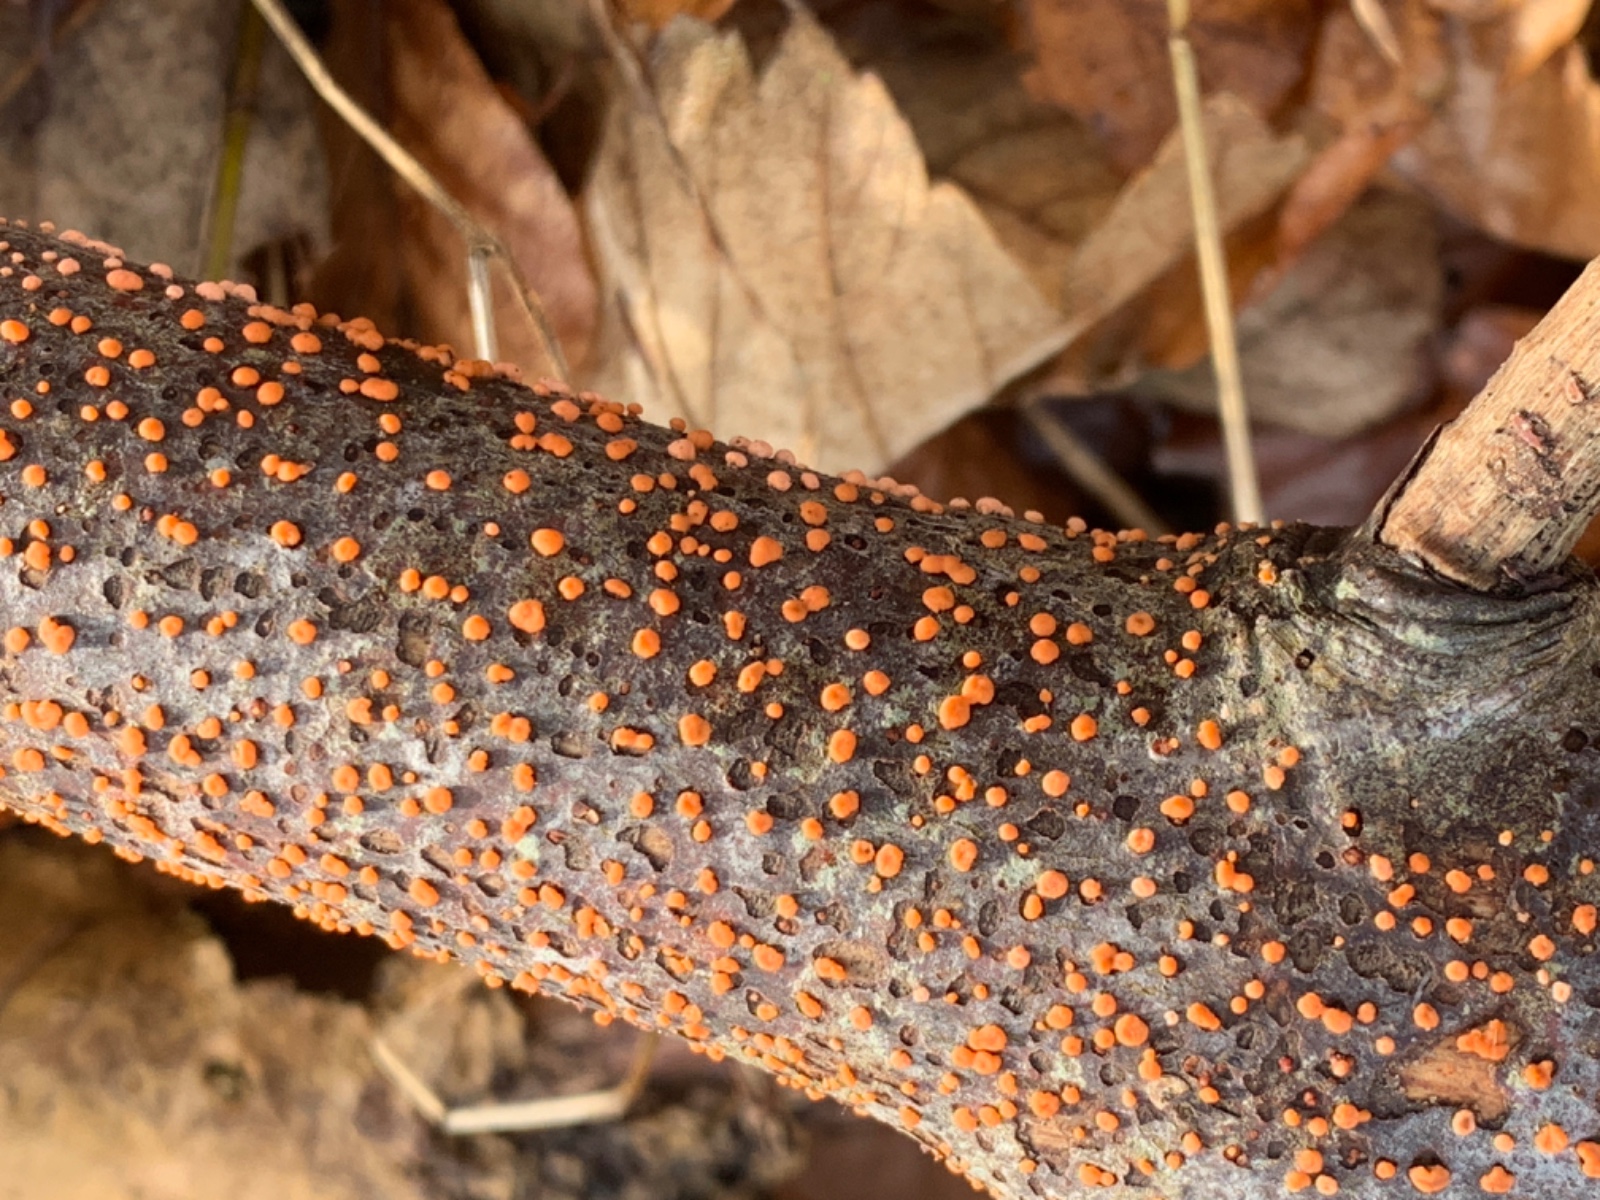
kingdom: Fungi
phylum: Ascomycota
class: Sordariomycetes
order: Hypocreales
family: Nectriaceae
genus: Nectria
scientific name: Nectria cinnabarina
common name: almindelig cinnobersvamp
